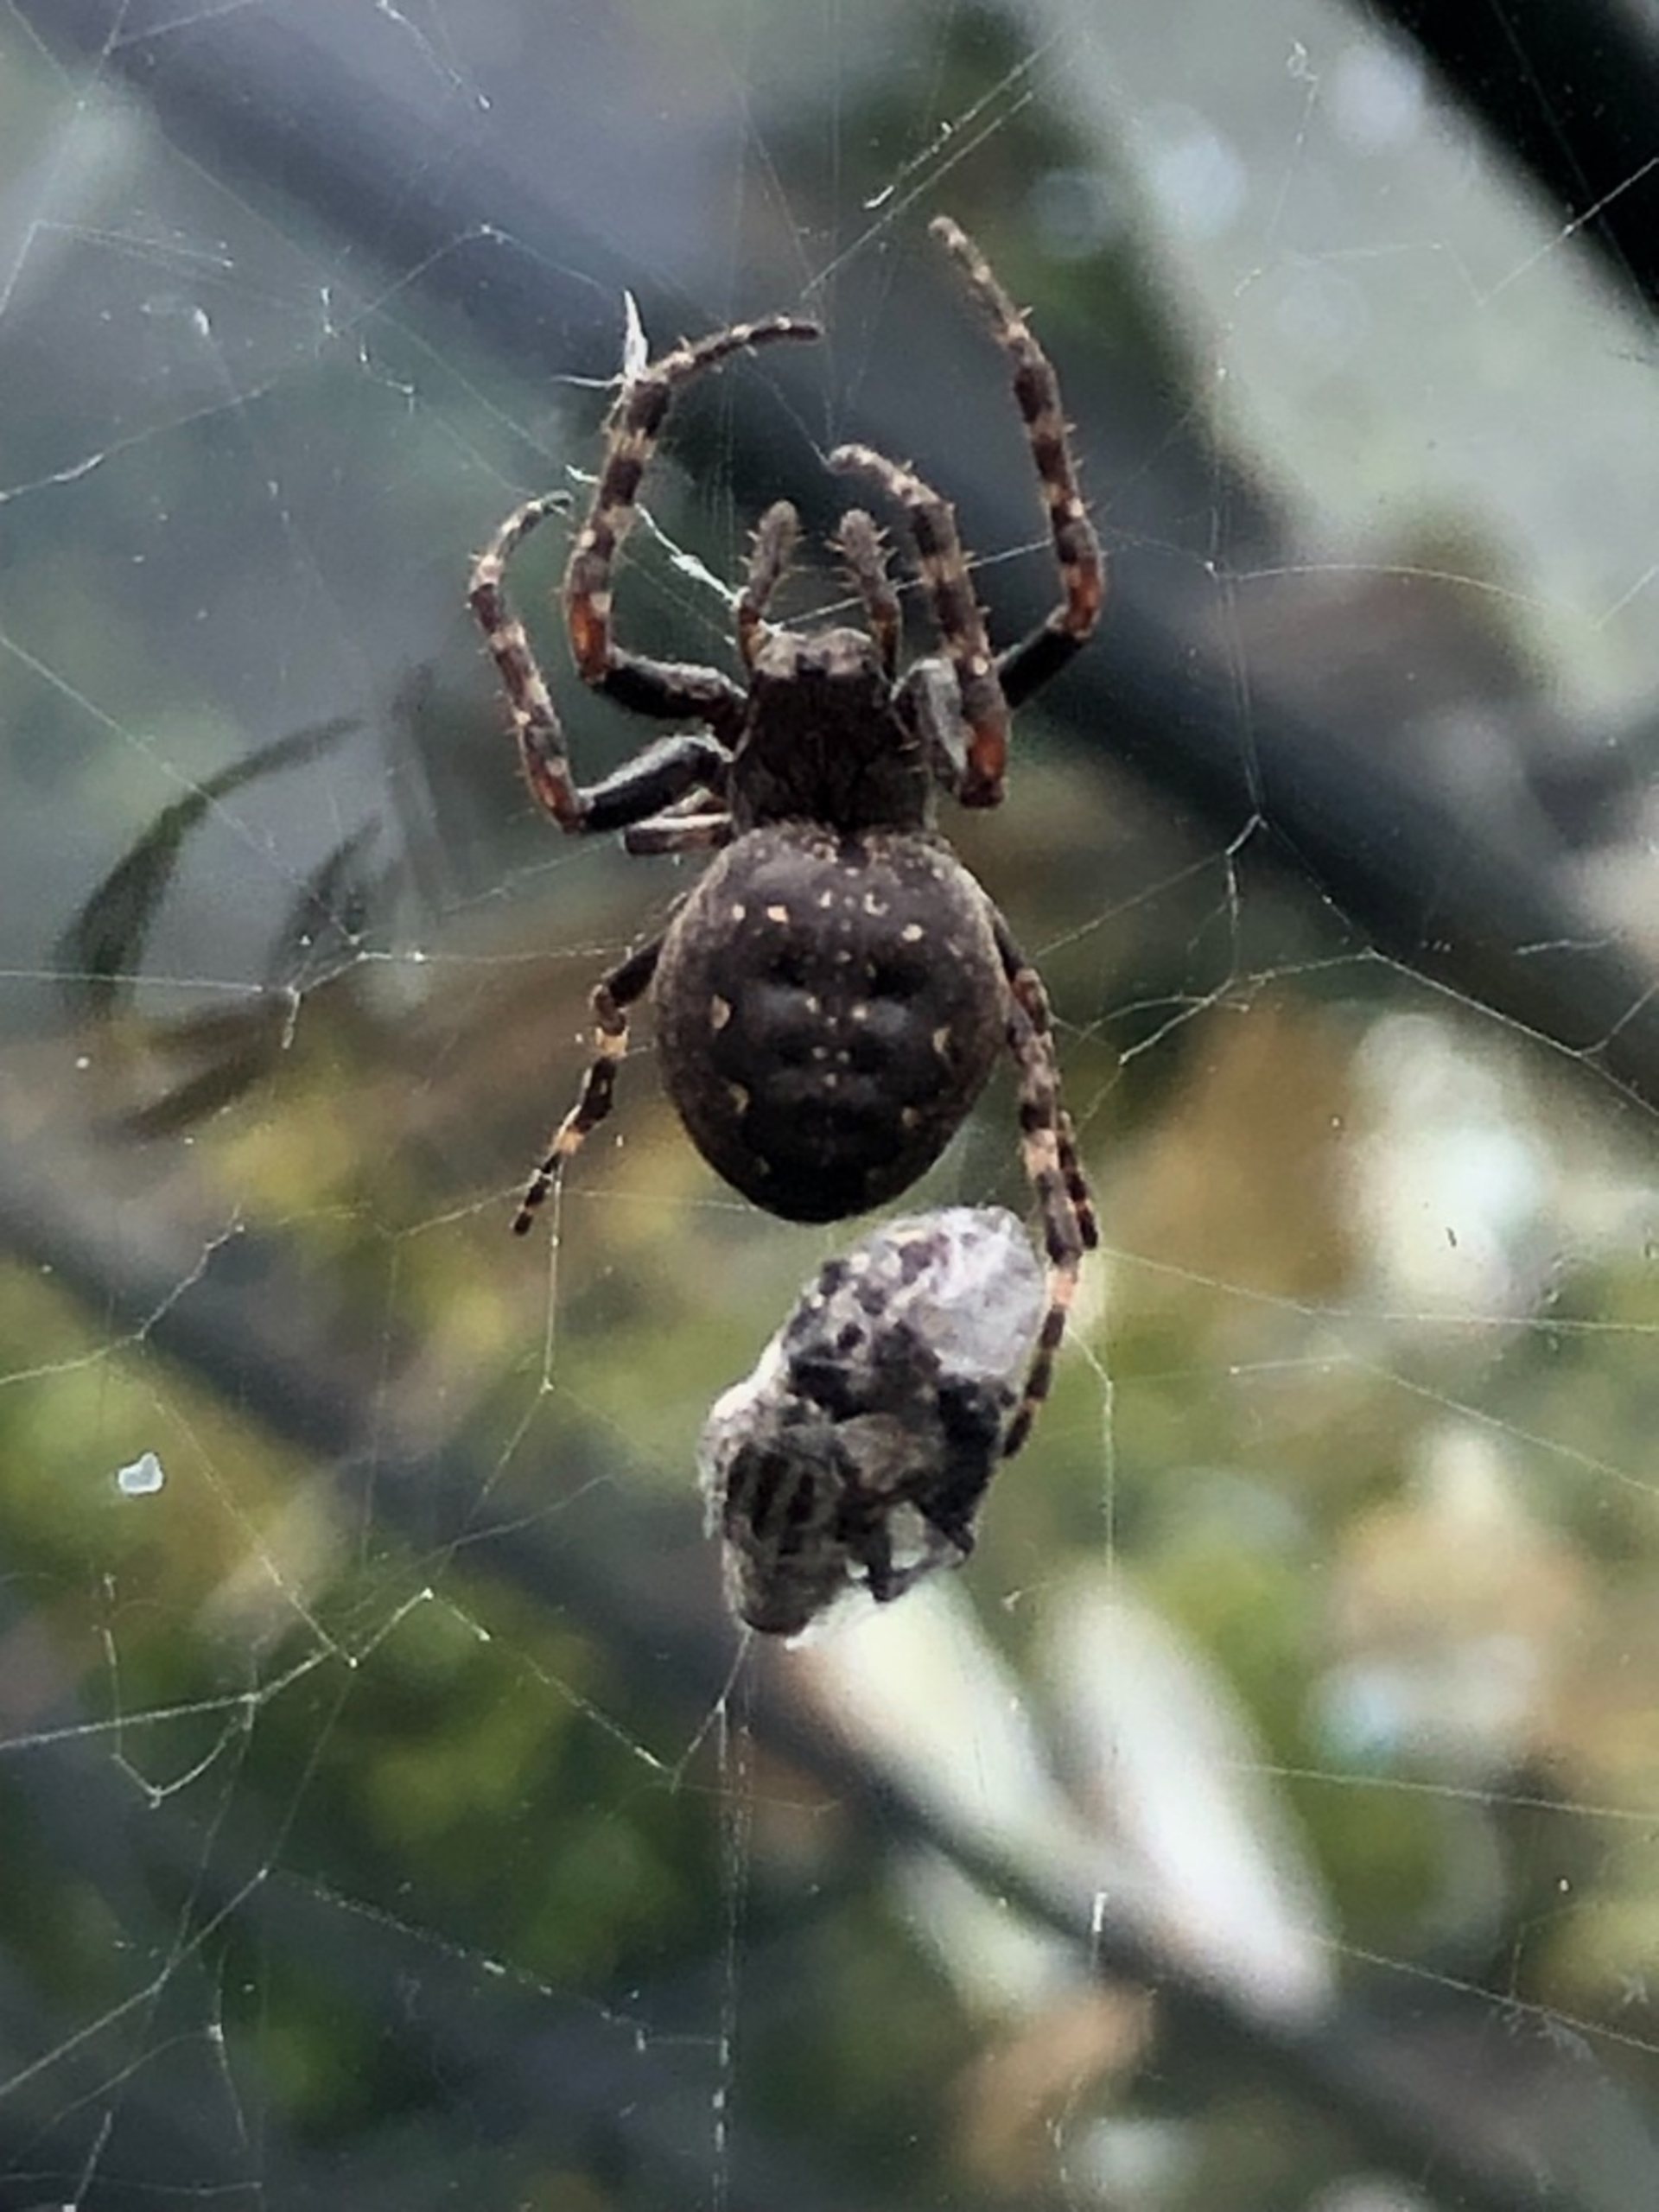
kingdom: Animalia
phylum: Arthropoda
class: Arachnida
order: Araneae
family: Araneidae
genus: Nuctenea
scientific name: Nuctenea umbratica
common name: Flad hjulspinder
